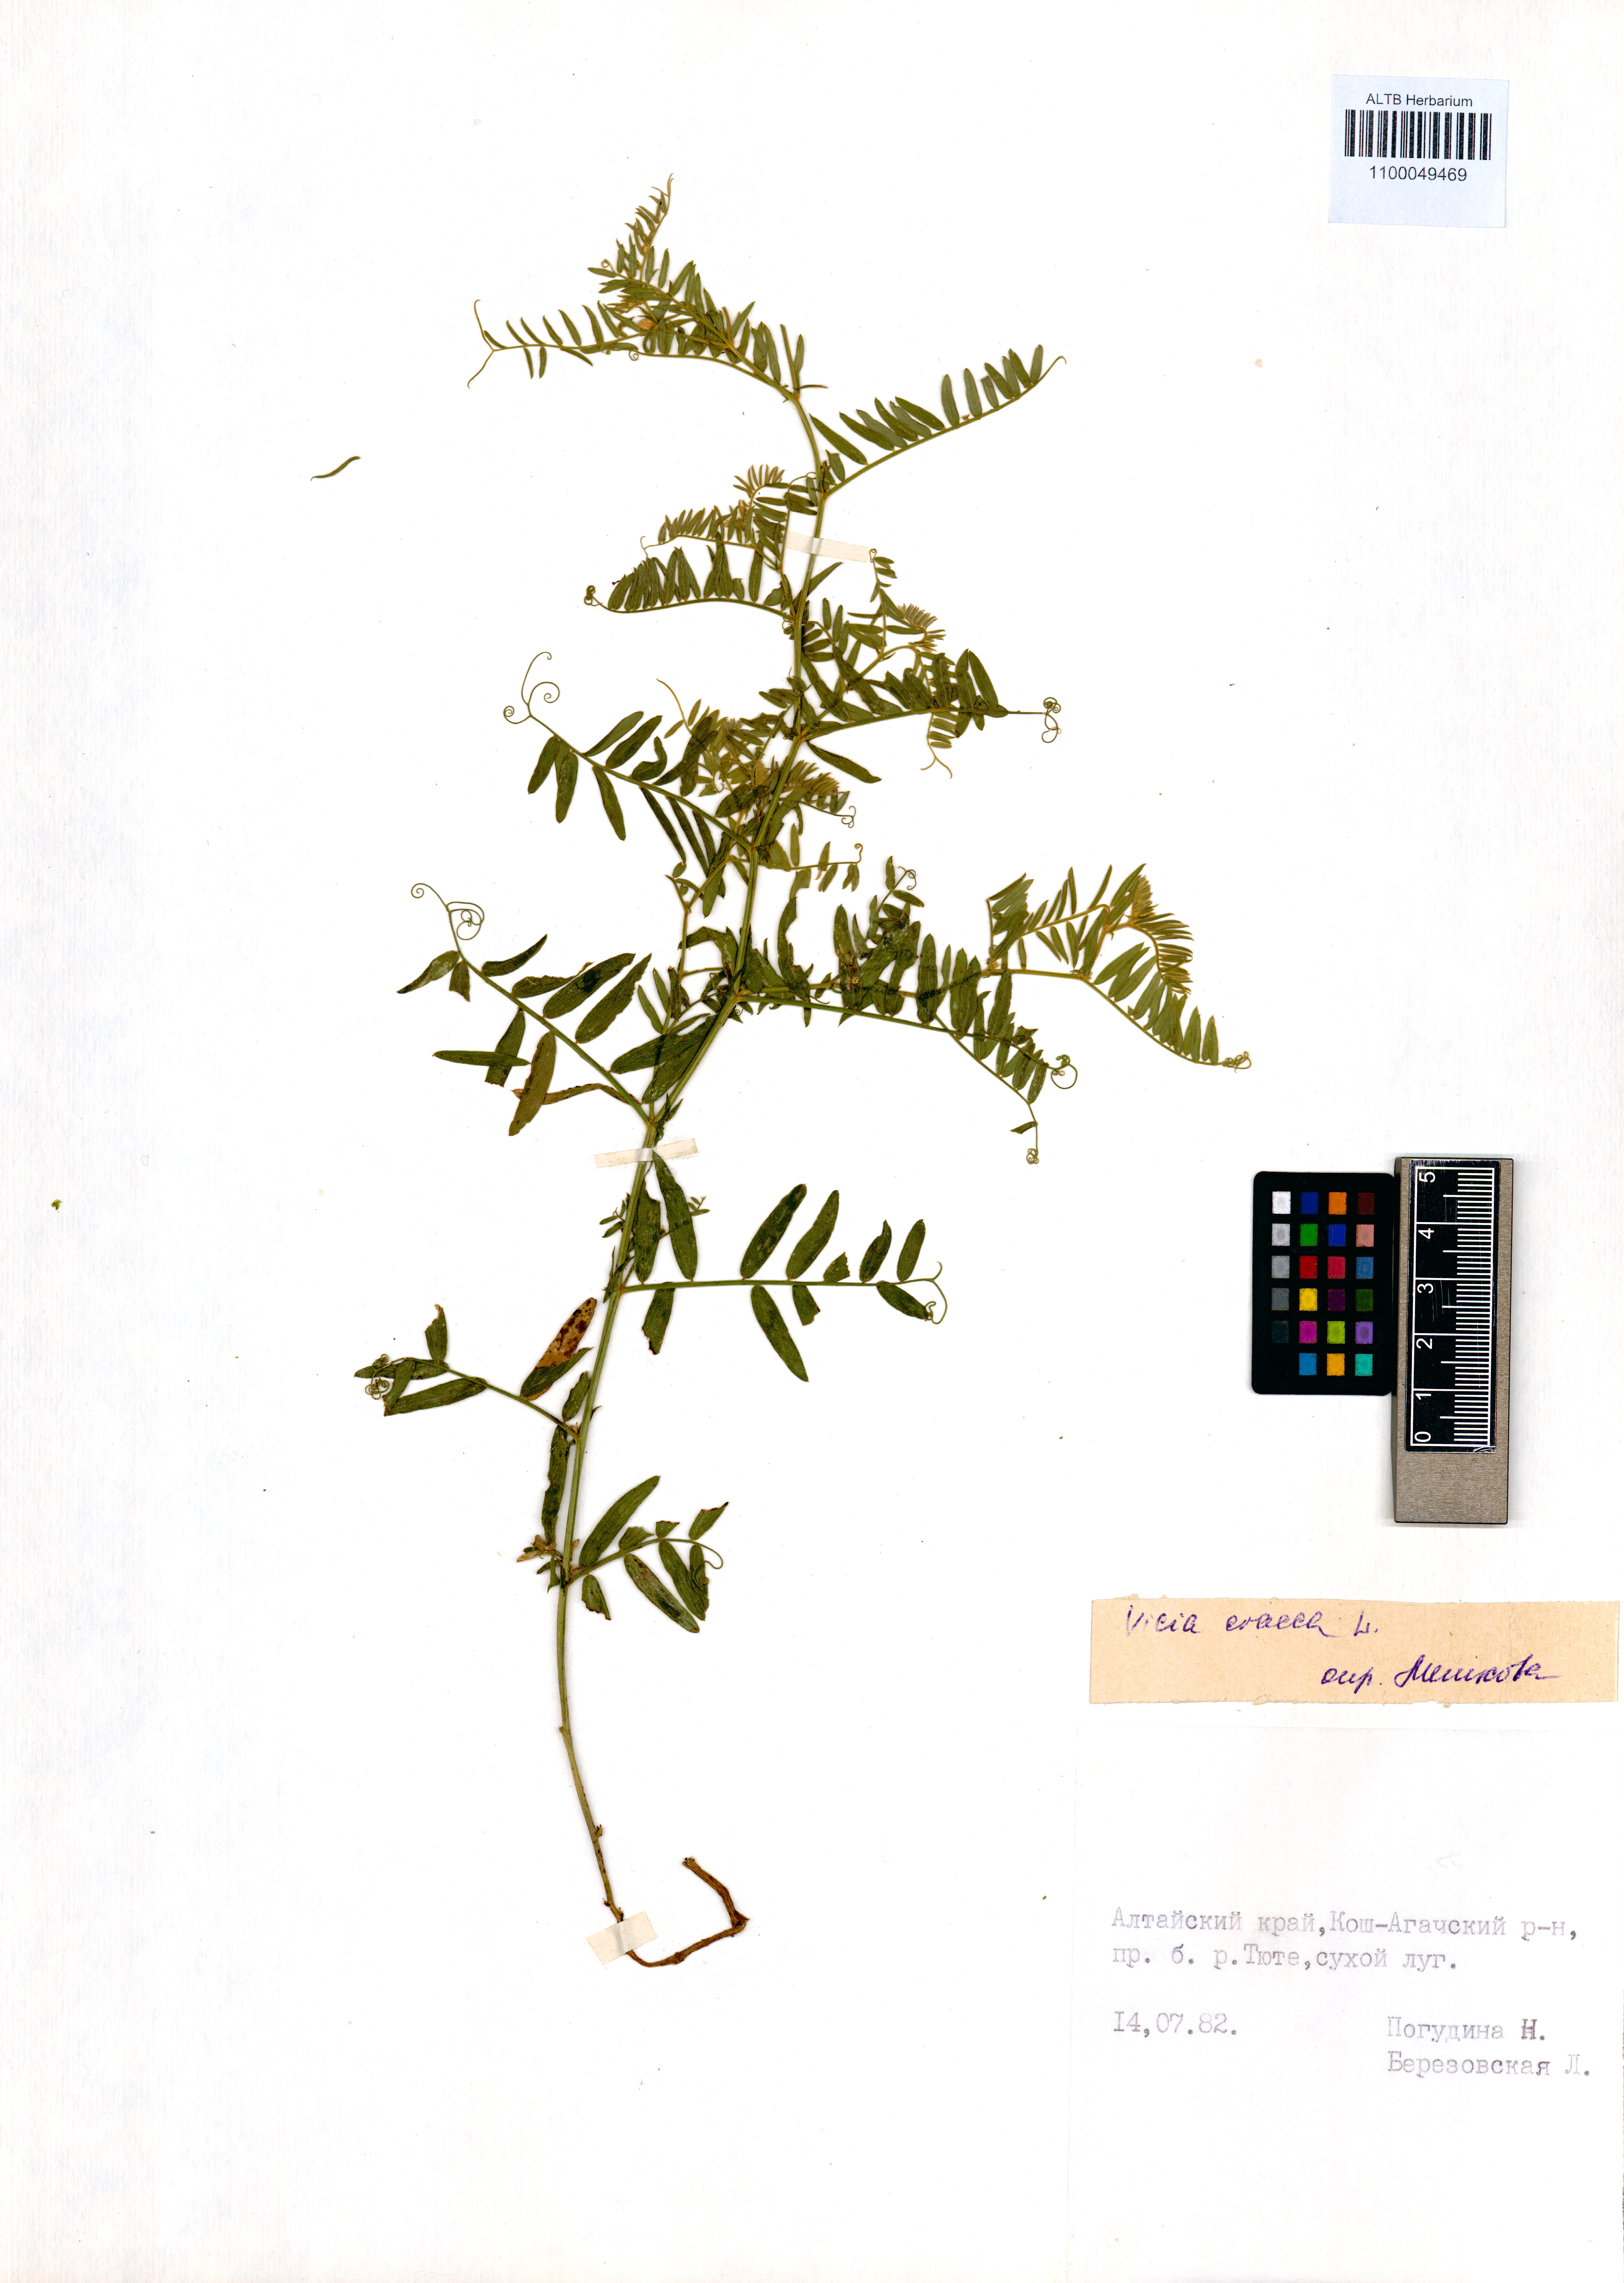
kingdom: Plantae
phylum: Tracheophyta
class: Magnoliopsida
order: Fabales
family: Fabaceae
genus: Vicia
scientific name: Vicia cracca
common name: Bird vetch
